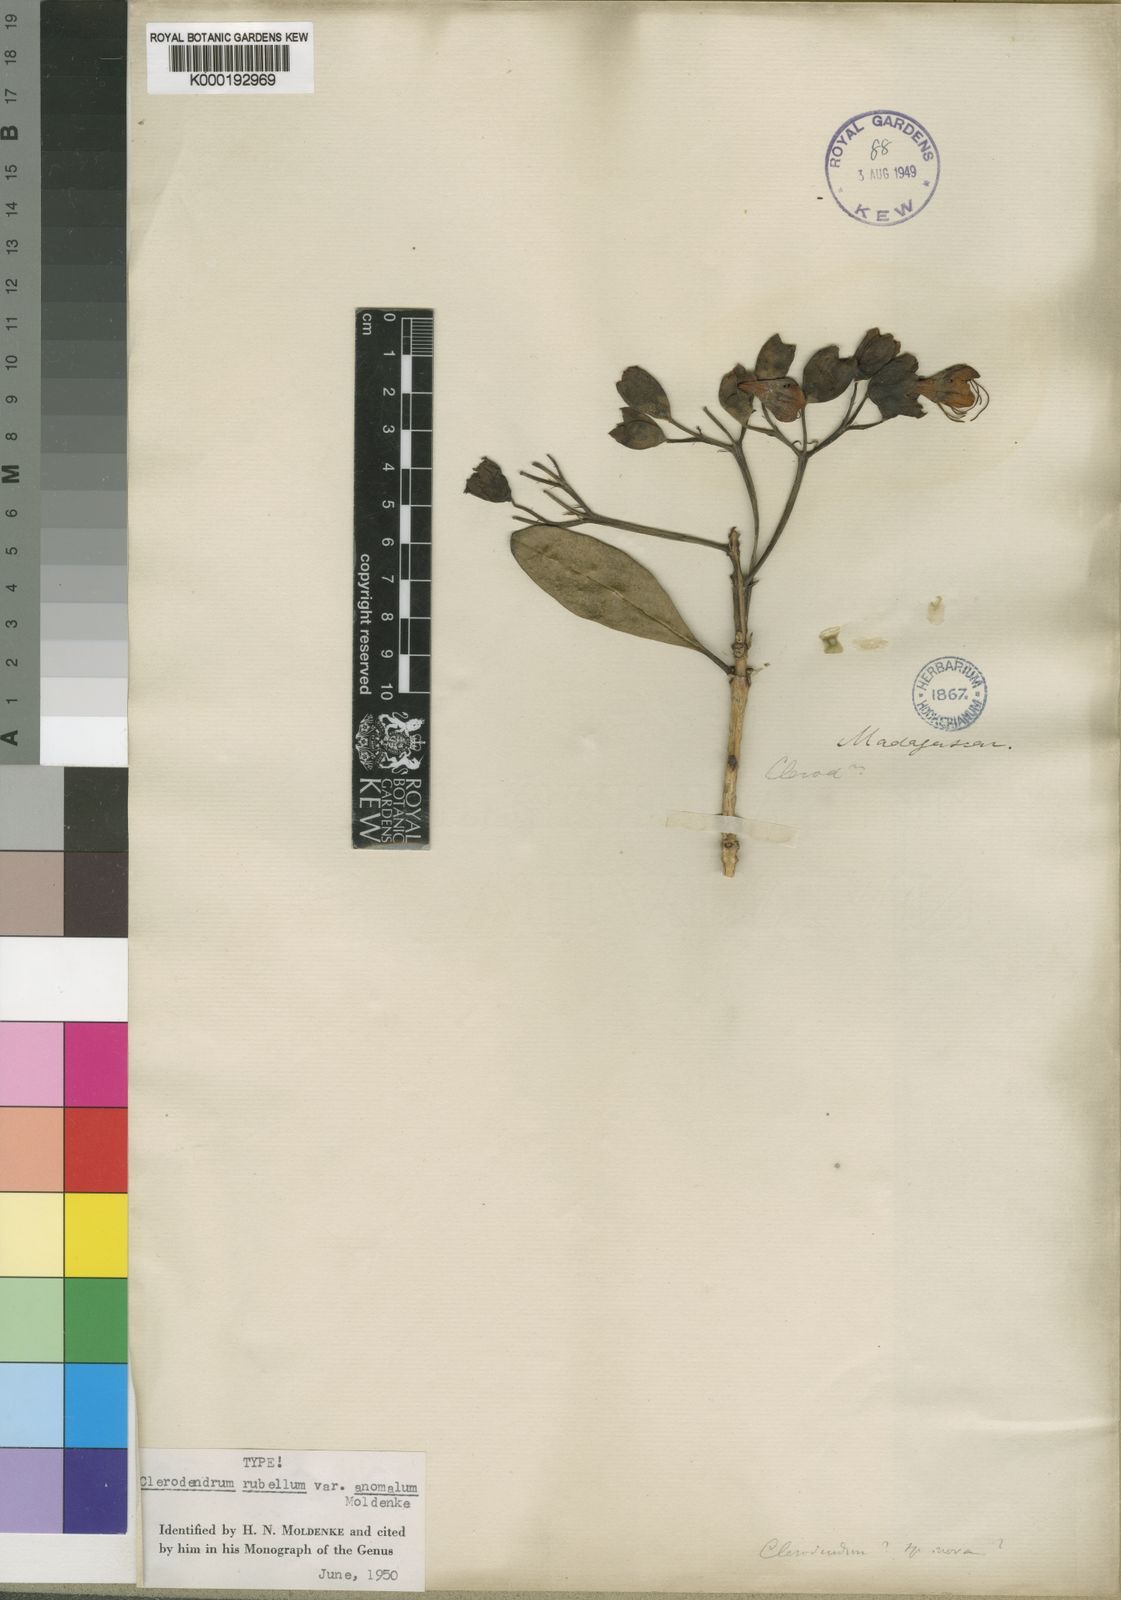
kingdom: Plantae
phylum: Tracheophyta
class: Magnoliopsida
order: Lamiales
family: Lamiaceae
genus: Clerodendrum
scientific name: Clerodendrum
